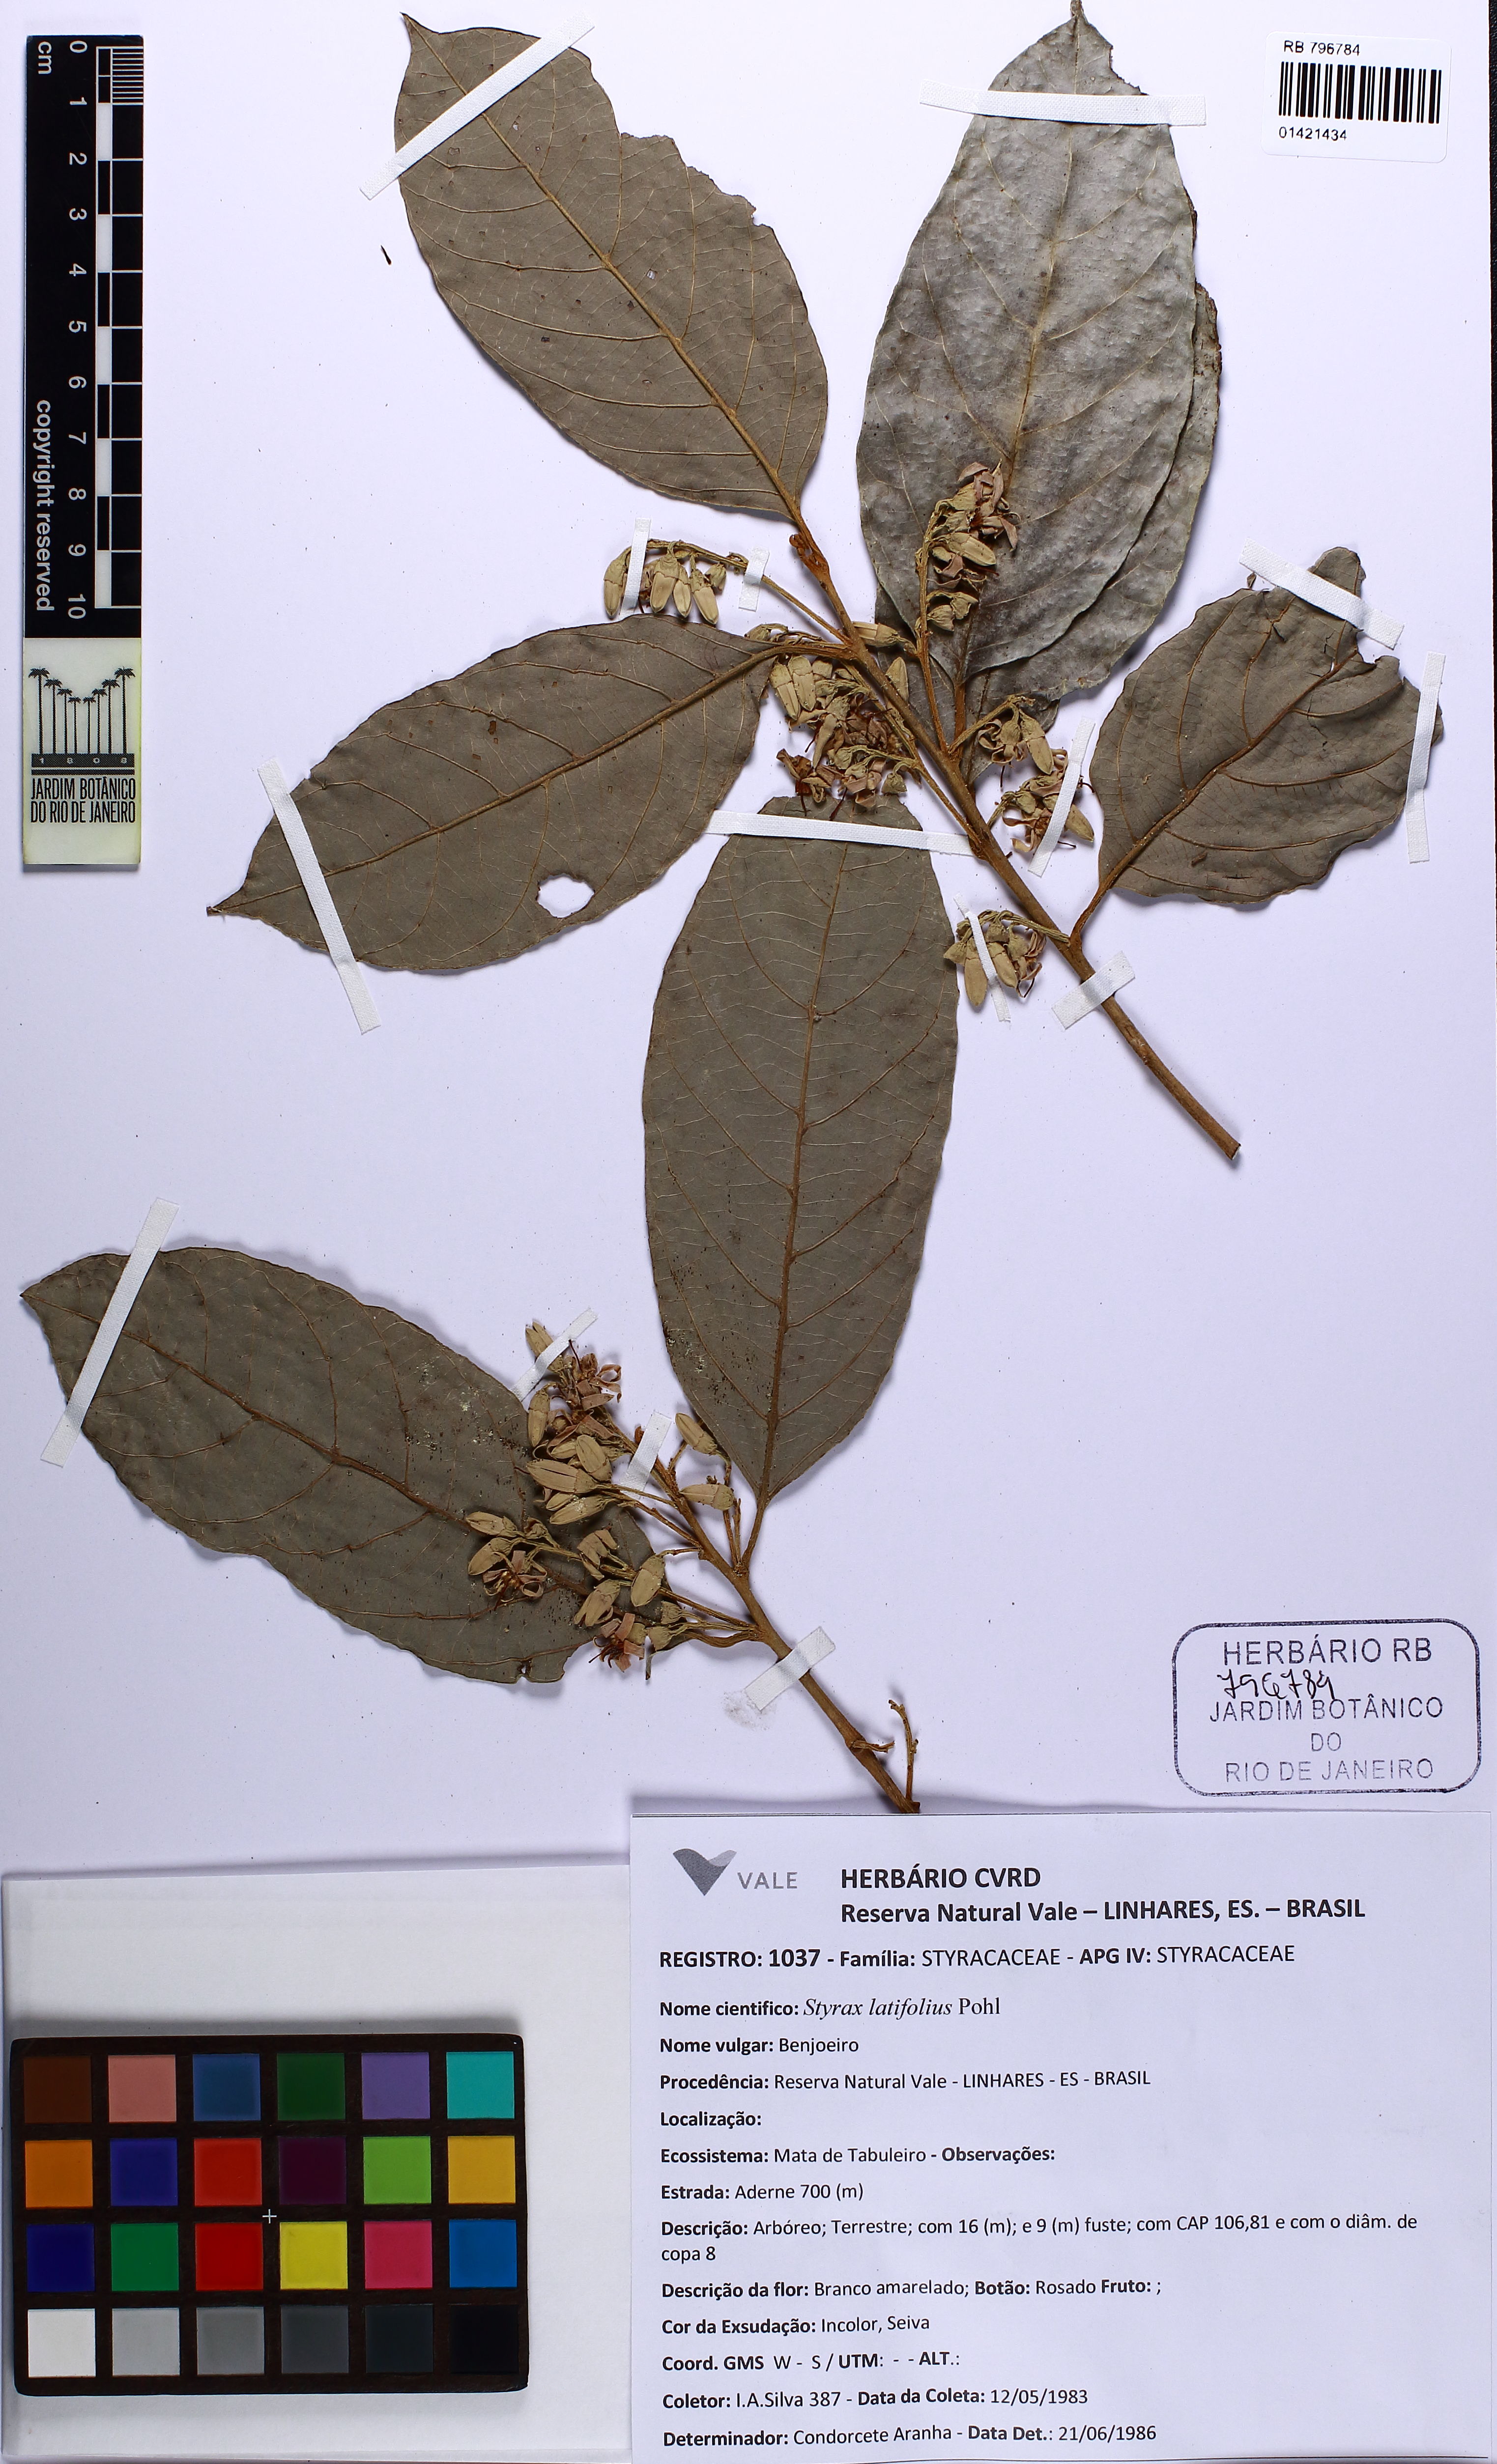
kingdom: Plantae
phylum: Tracheophyta
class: Magnoliopsida
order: Ericales
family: Styracaceae
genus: Styrax
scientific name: Styrax latifolius
